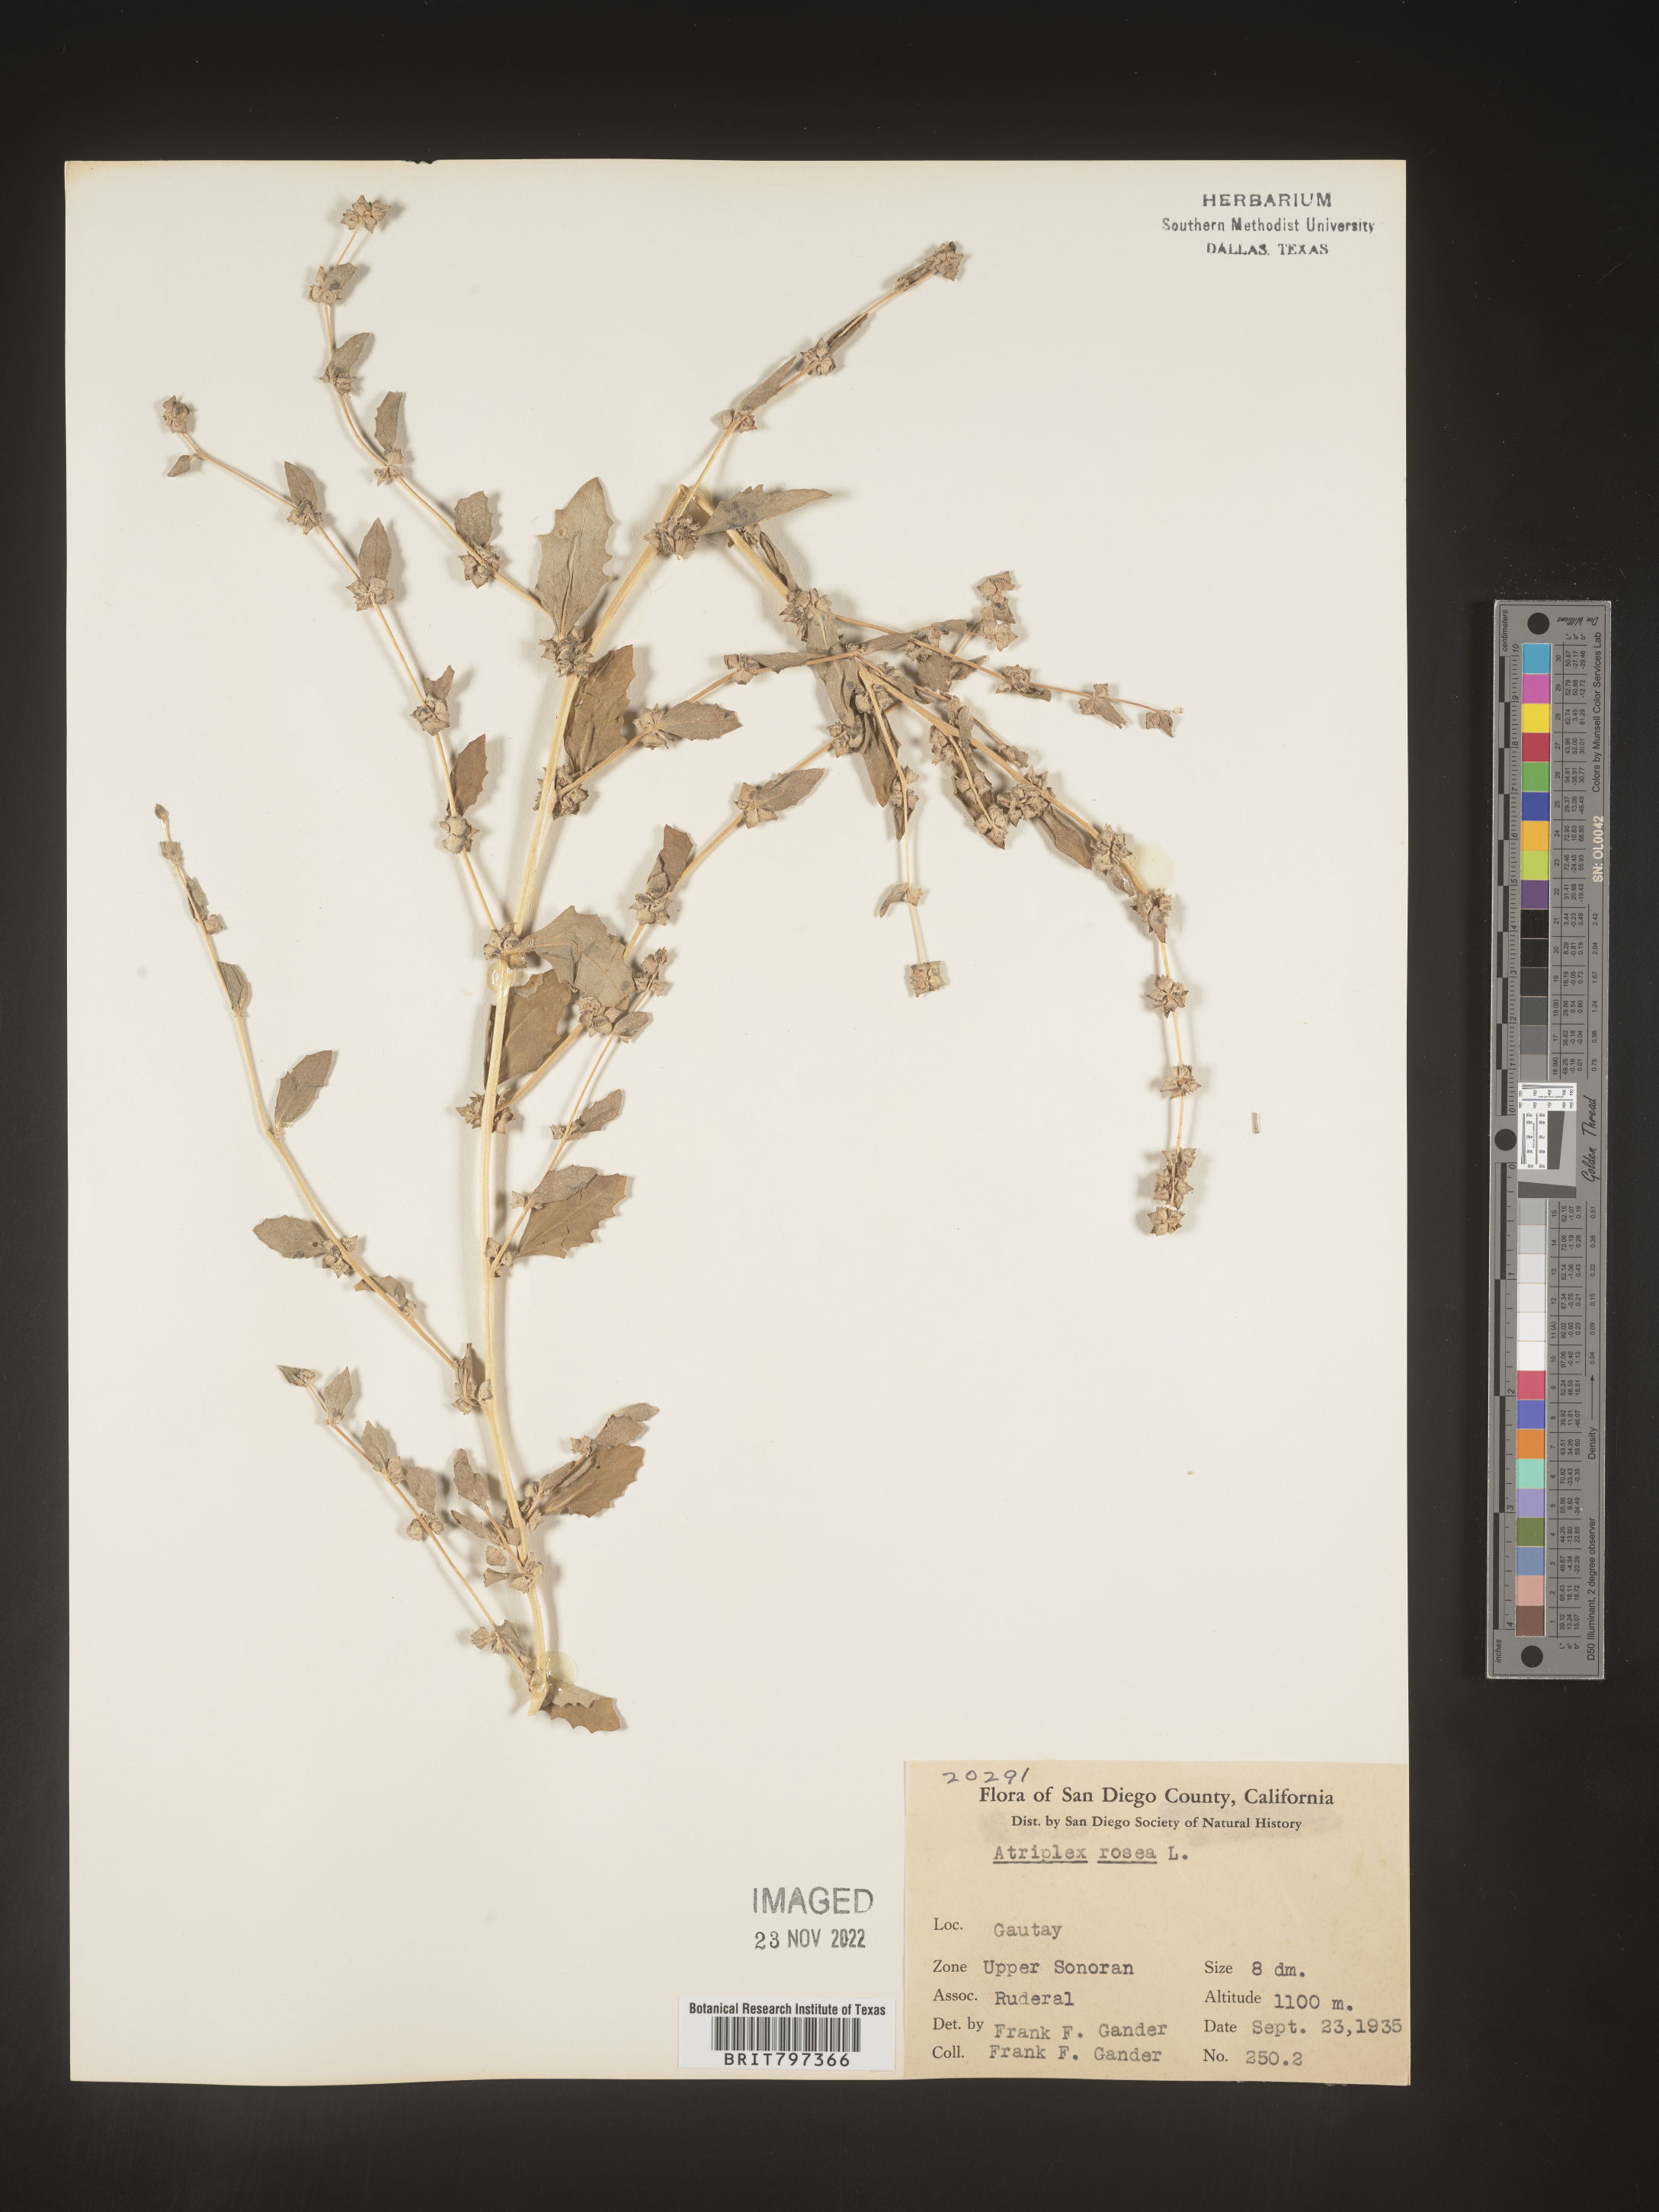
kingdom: Plantae
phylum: Tracheophyta
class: Magnoliopsida
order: Caryophyllales
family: Amaranthaceae
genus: Atriplex
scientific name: Atriplex rosea
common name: Tumbling saltweed
